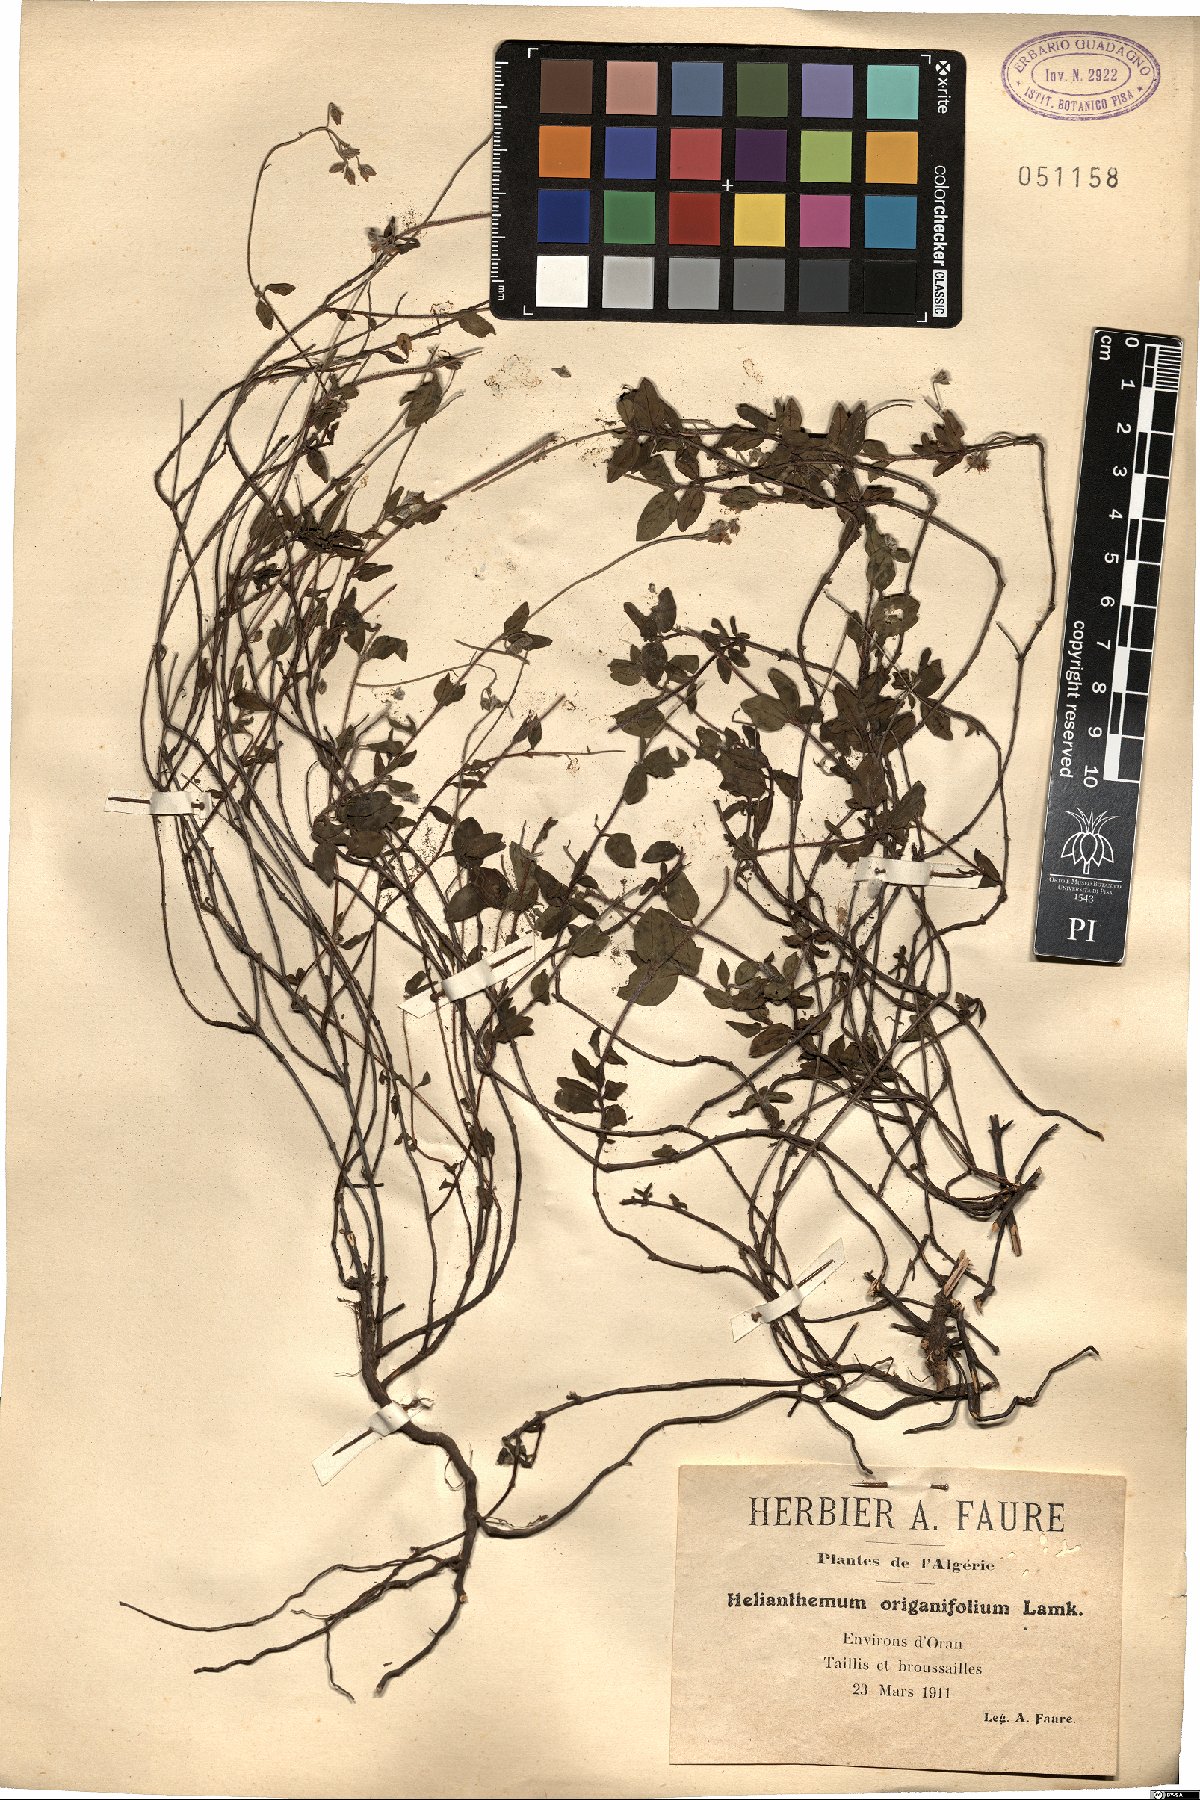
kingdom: Plantae
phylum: Tracheophyta
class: Magnoliopsida
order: Malvales
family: Cistaceae
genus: Helianthemum
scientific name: Helianthemum origanifolium
